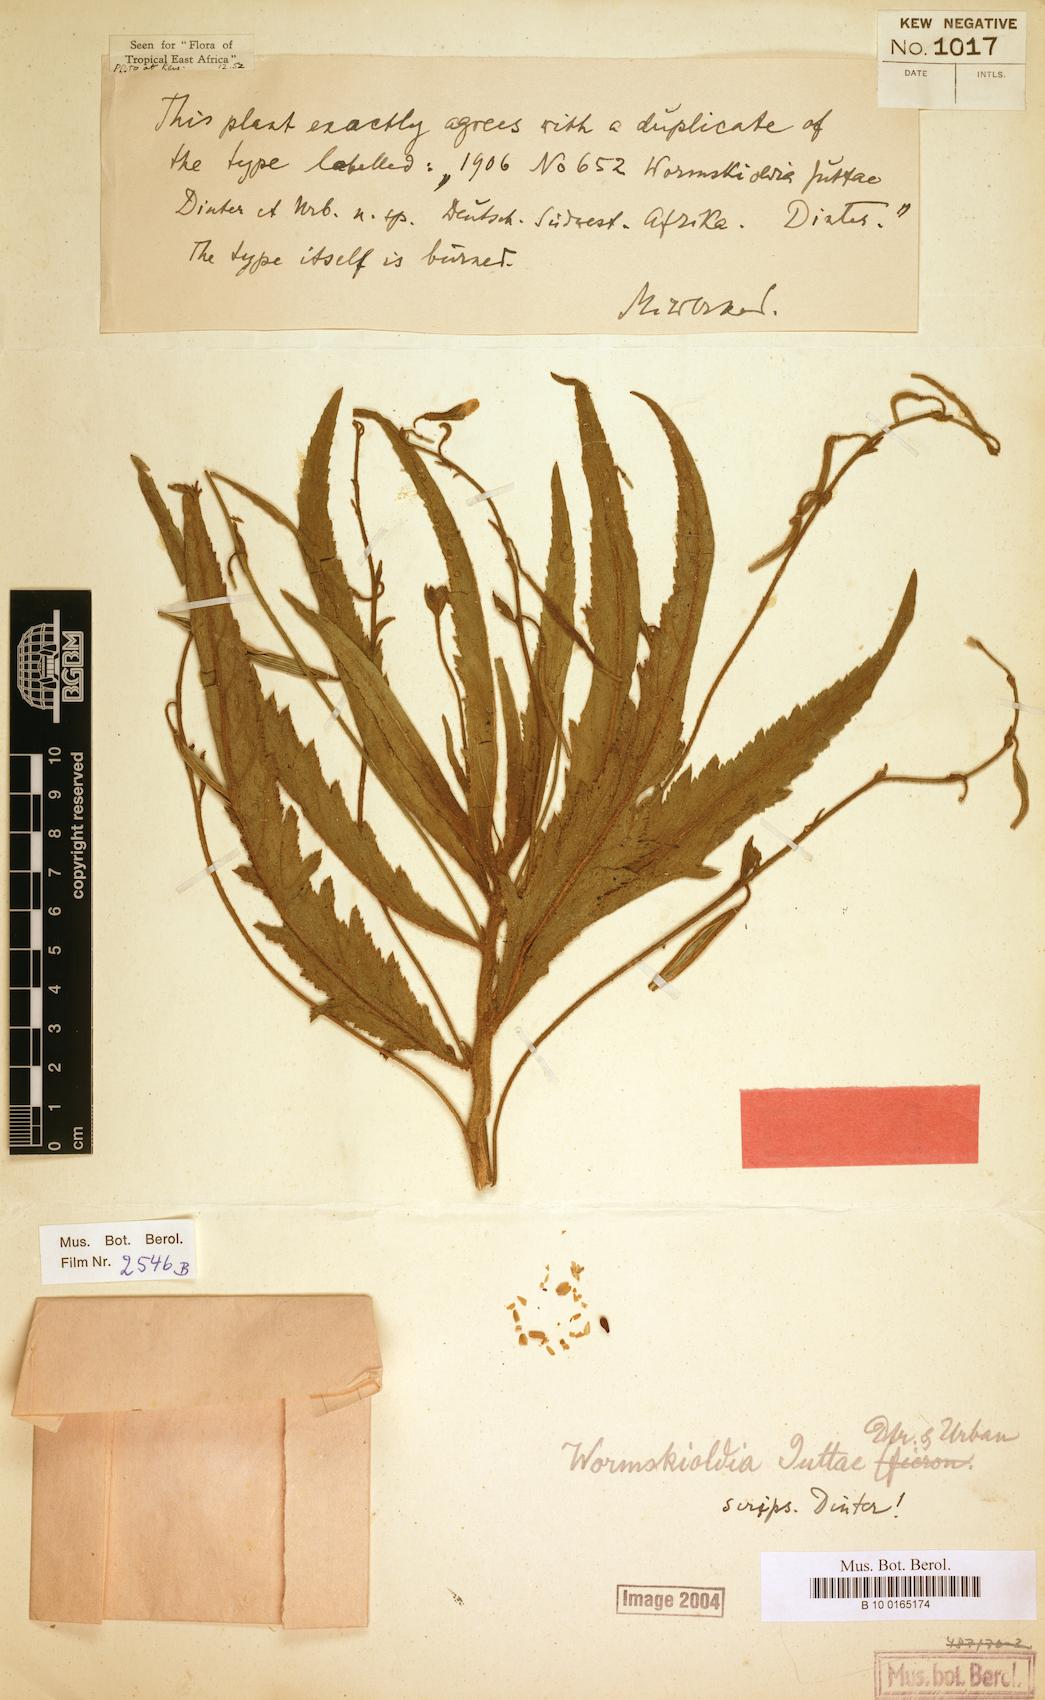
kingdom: Plantae
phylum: Tracheophyta
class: Magnoliopsida
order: Malpighiales
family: Turneraceae
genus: Tricliceras
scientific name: Tricliceras schinzii
